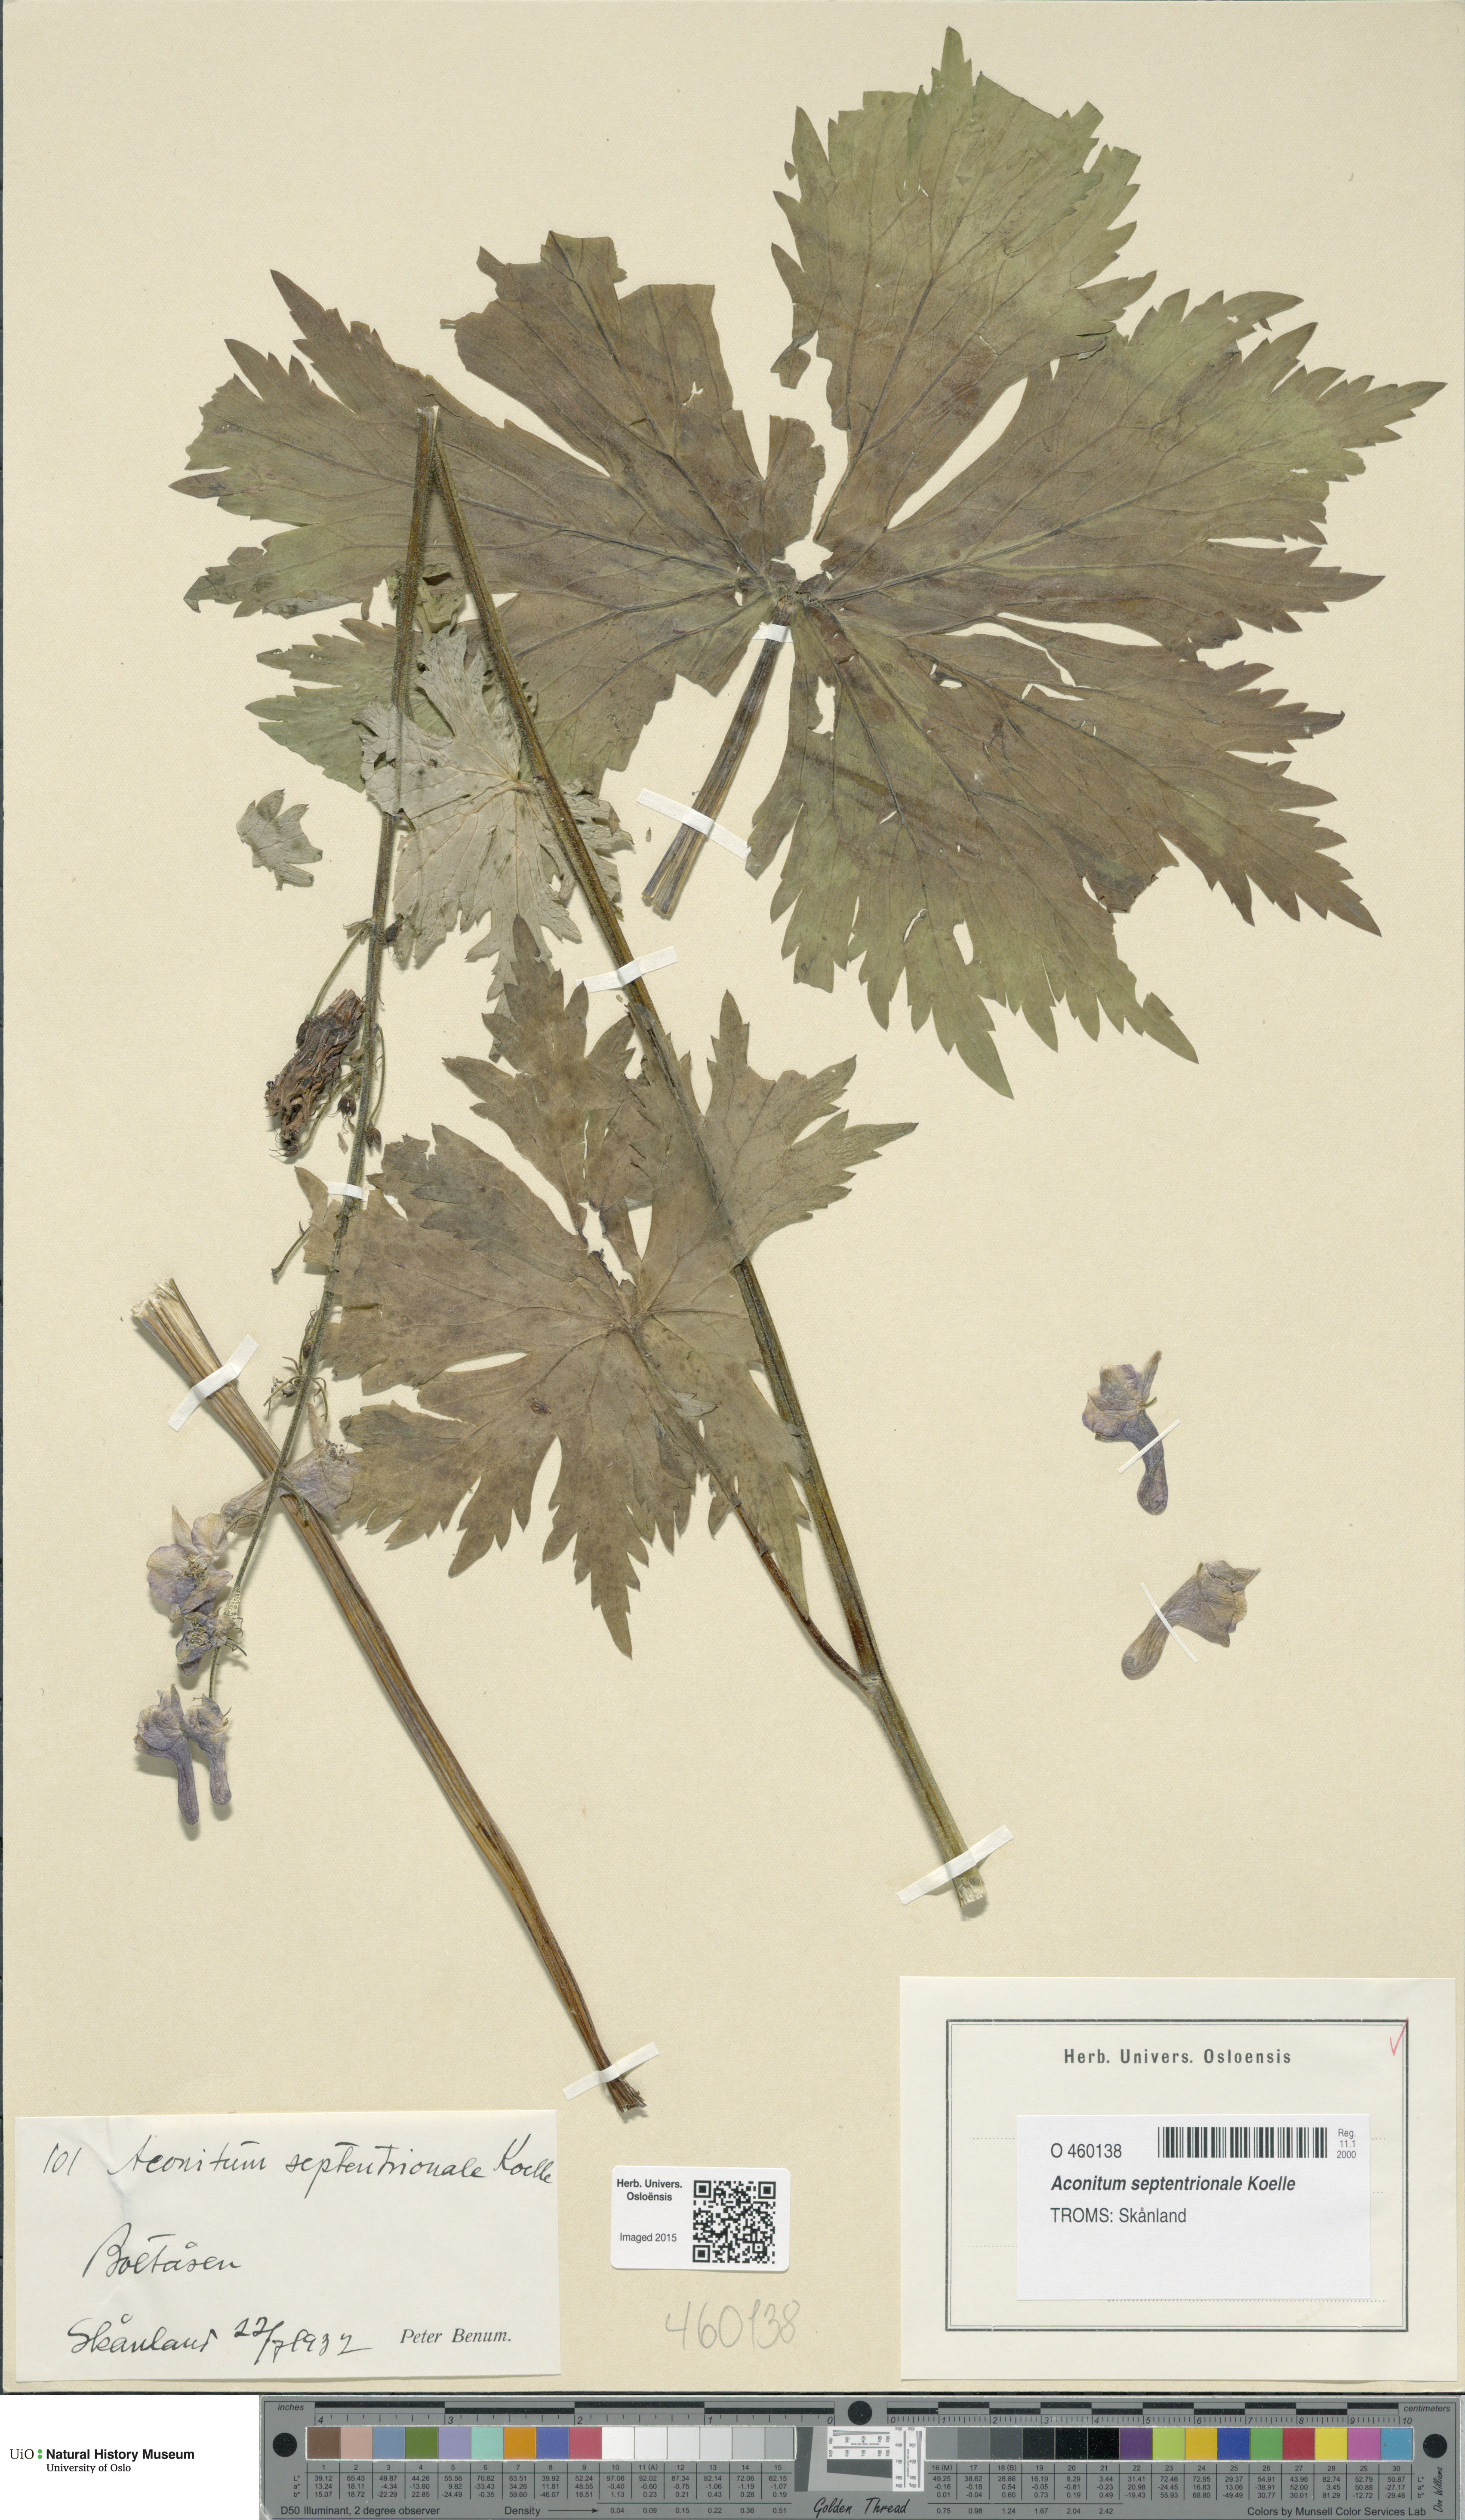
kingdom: Plantae
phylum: Tracheophyta
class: Magnoliopsida
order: Ranunculales
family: Ranunculaceae
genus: Aconitum
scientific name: Aconitum septentrionale
